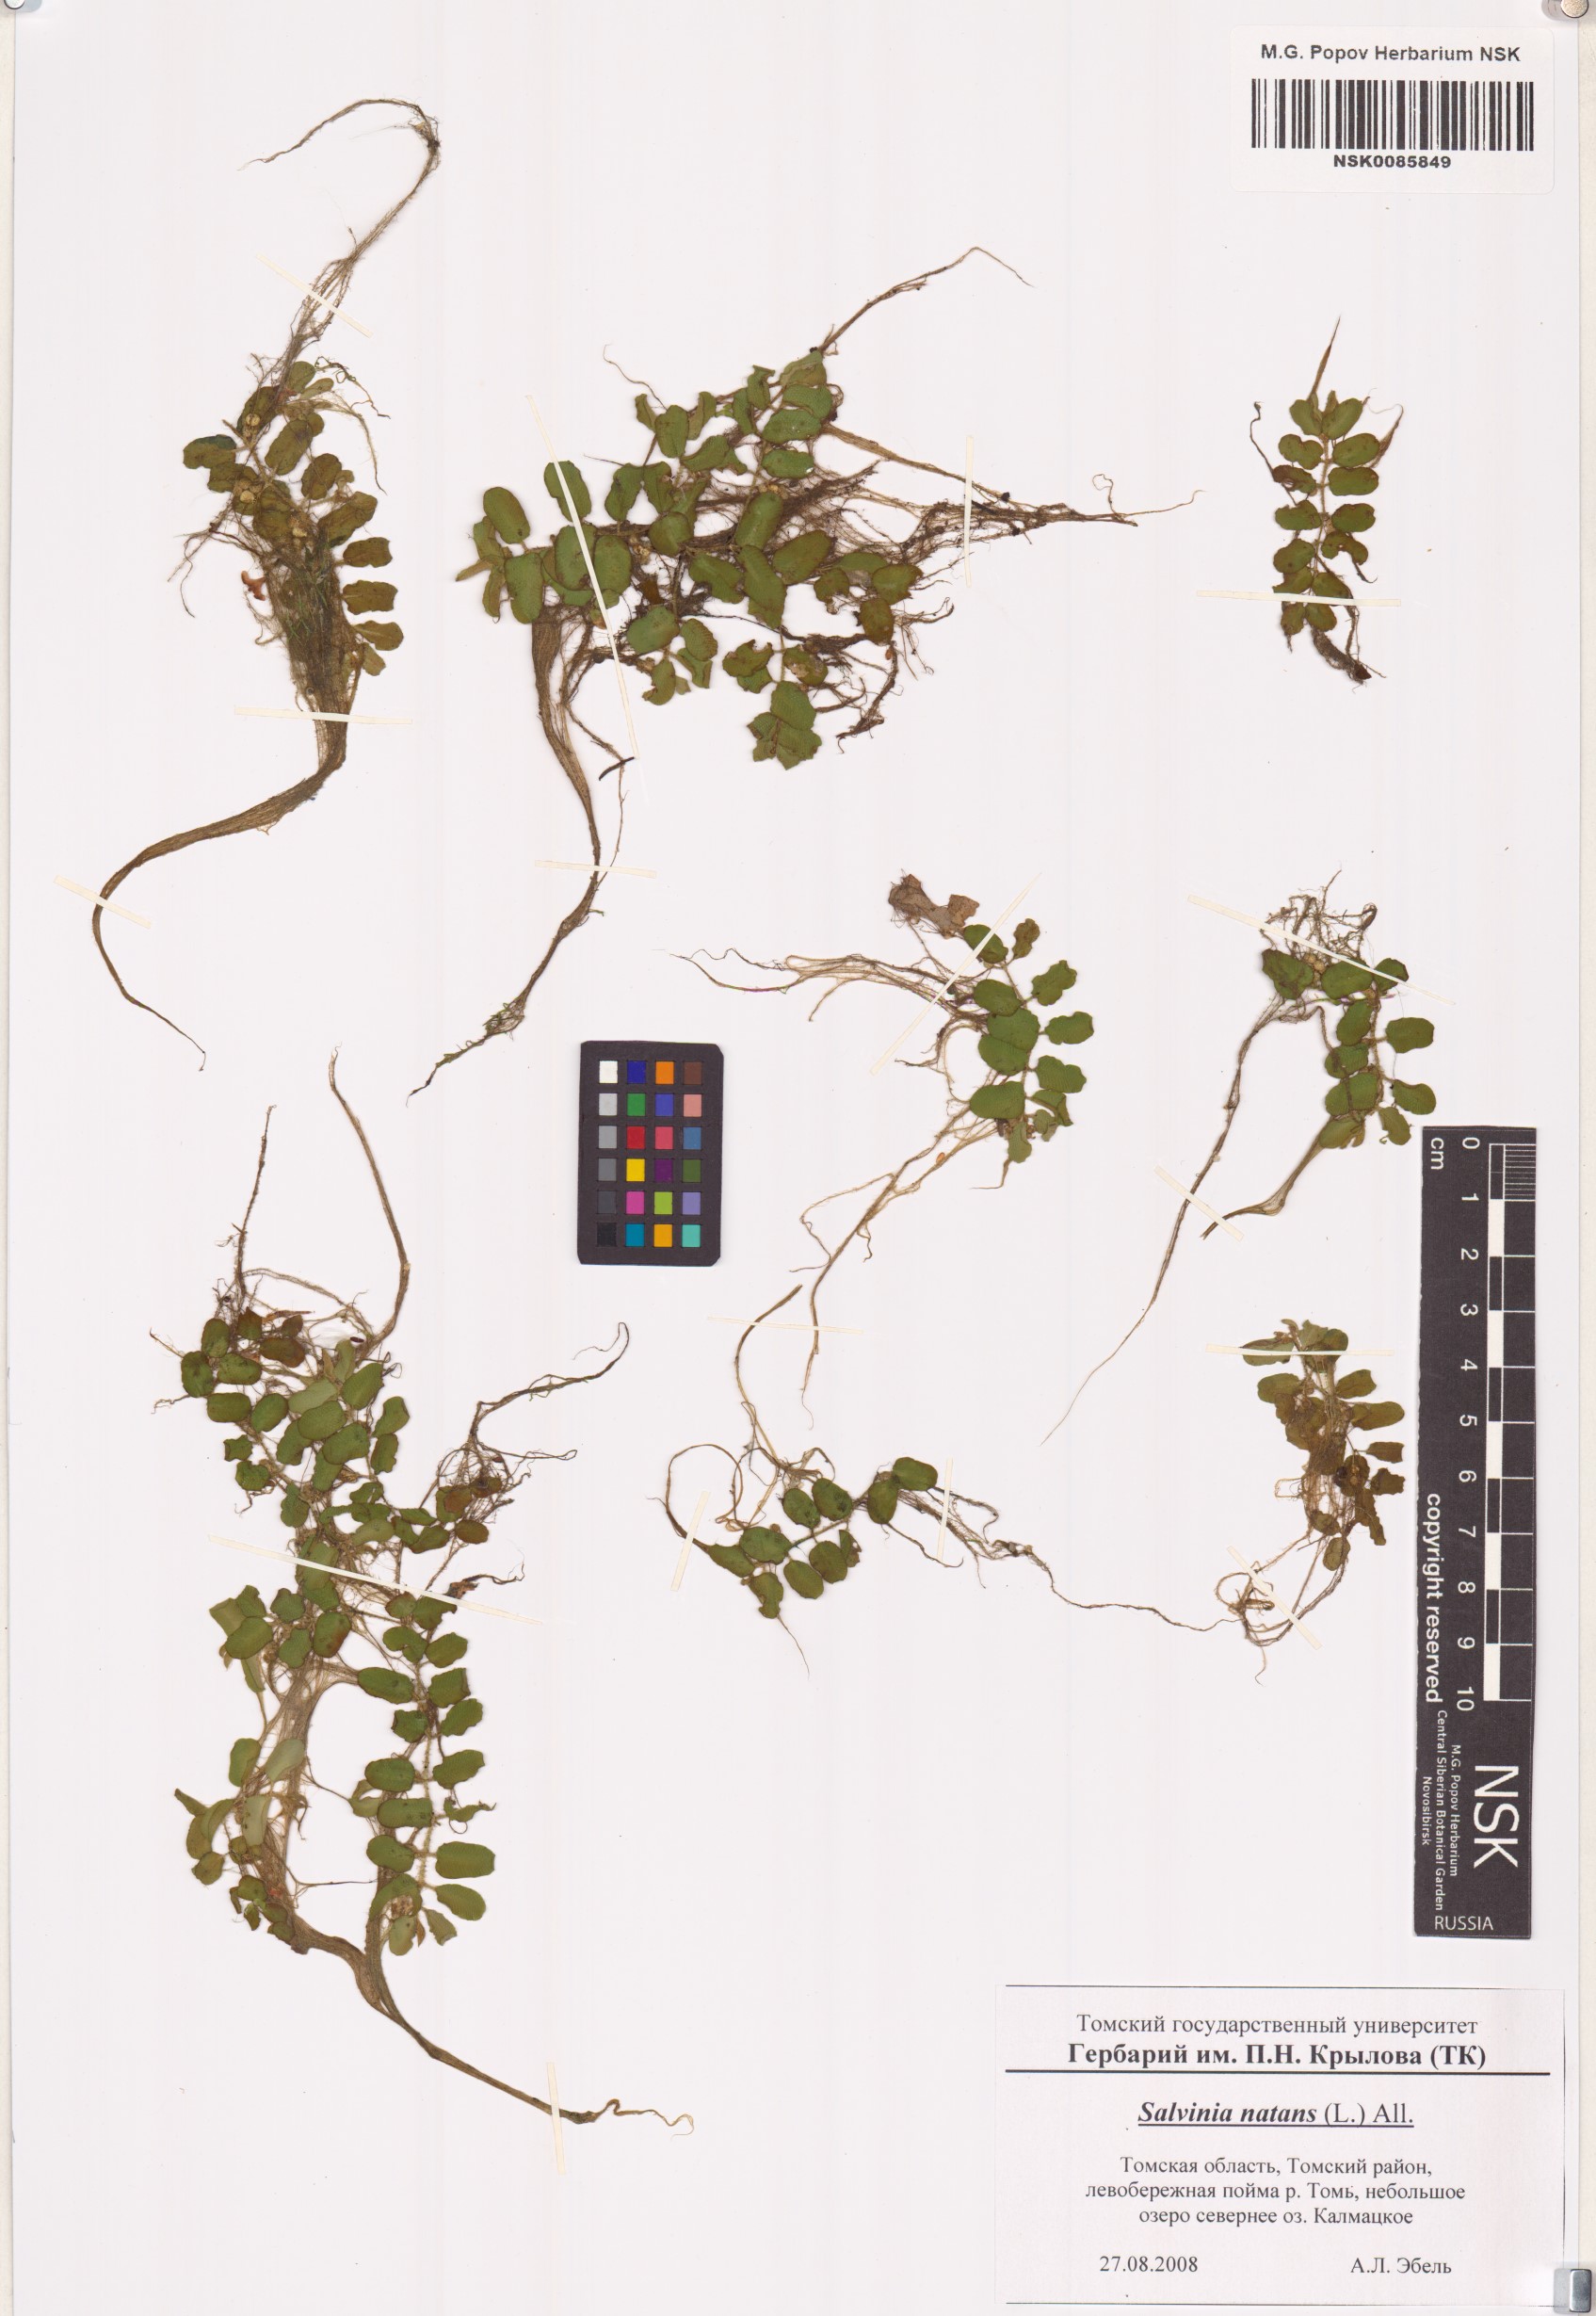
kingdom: Plantae
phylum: Tracheophyta
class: Polypodiopsida
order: Salviniales
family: Salviniaceae
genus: Salvinia
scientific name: Salvinia natans
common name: Floating fern
